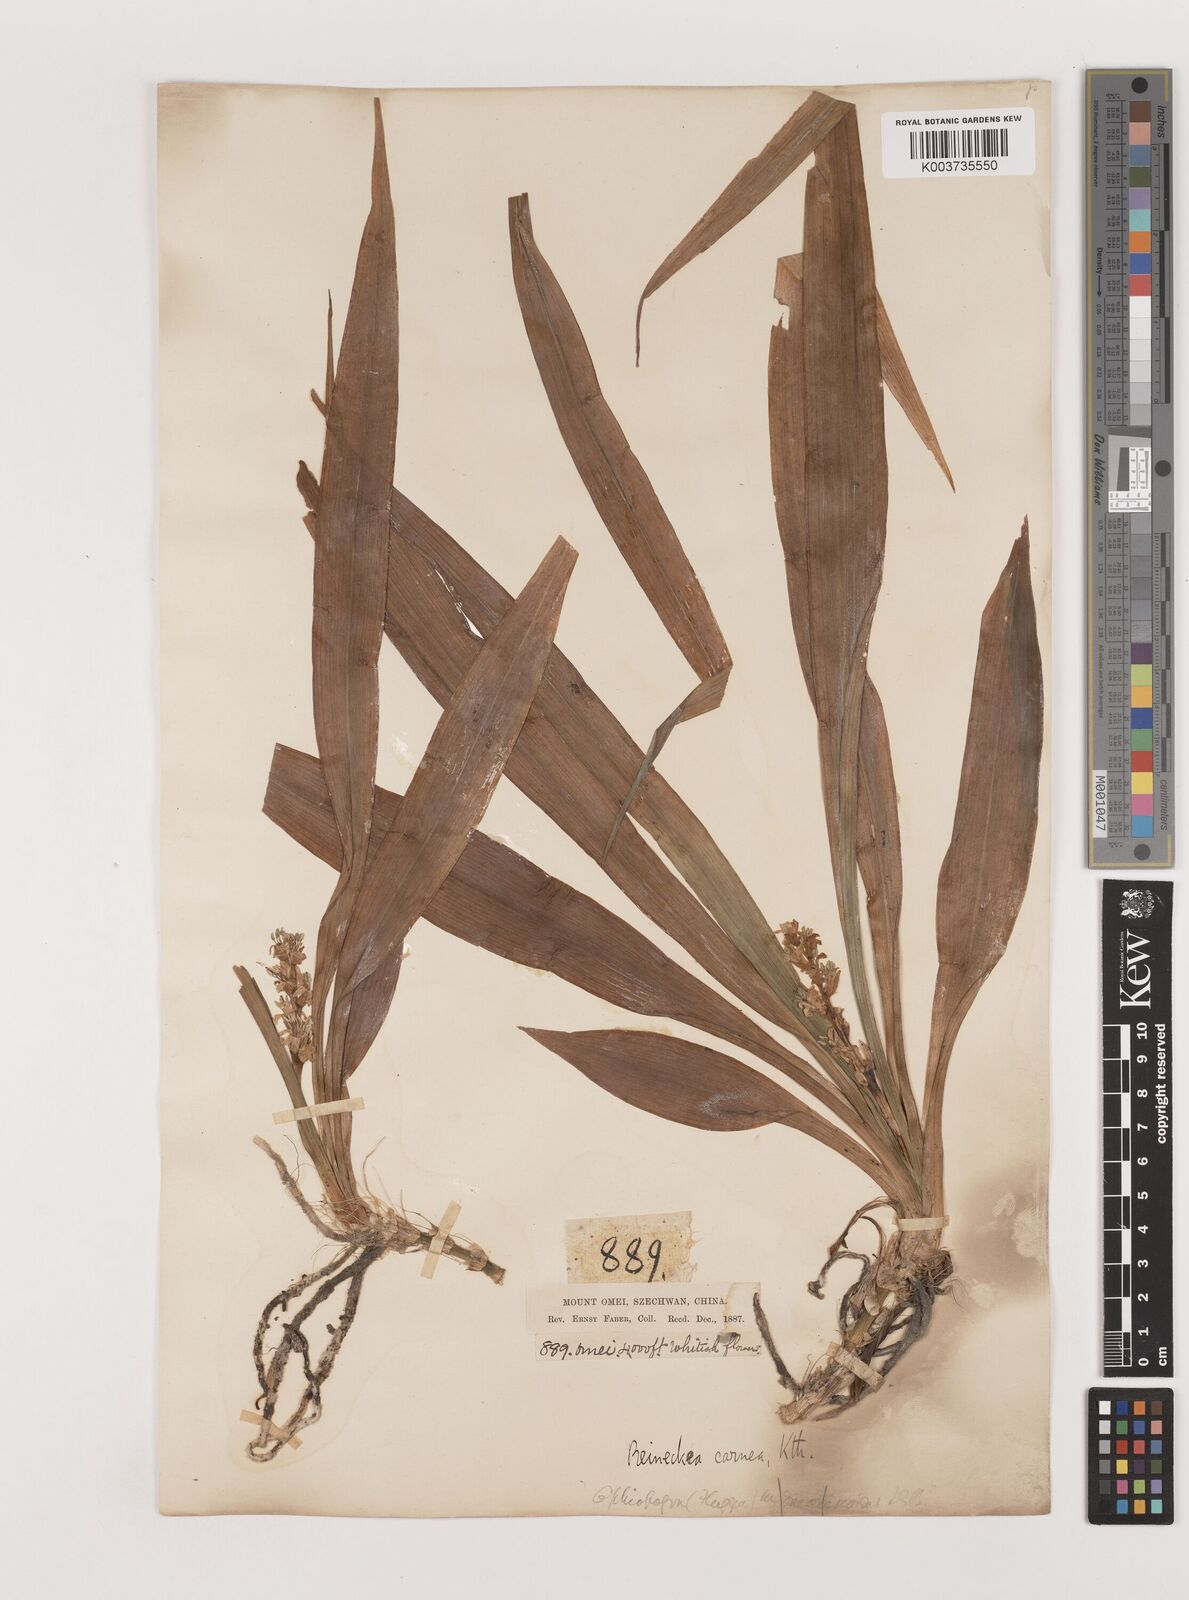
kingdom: Plantae
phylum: Tracheophyta
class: Liliopsida
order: Asparagales
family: Asparagaceae
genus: Reineckea
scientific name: Reineckea carnea
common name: Reineckea
